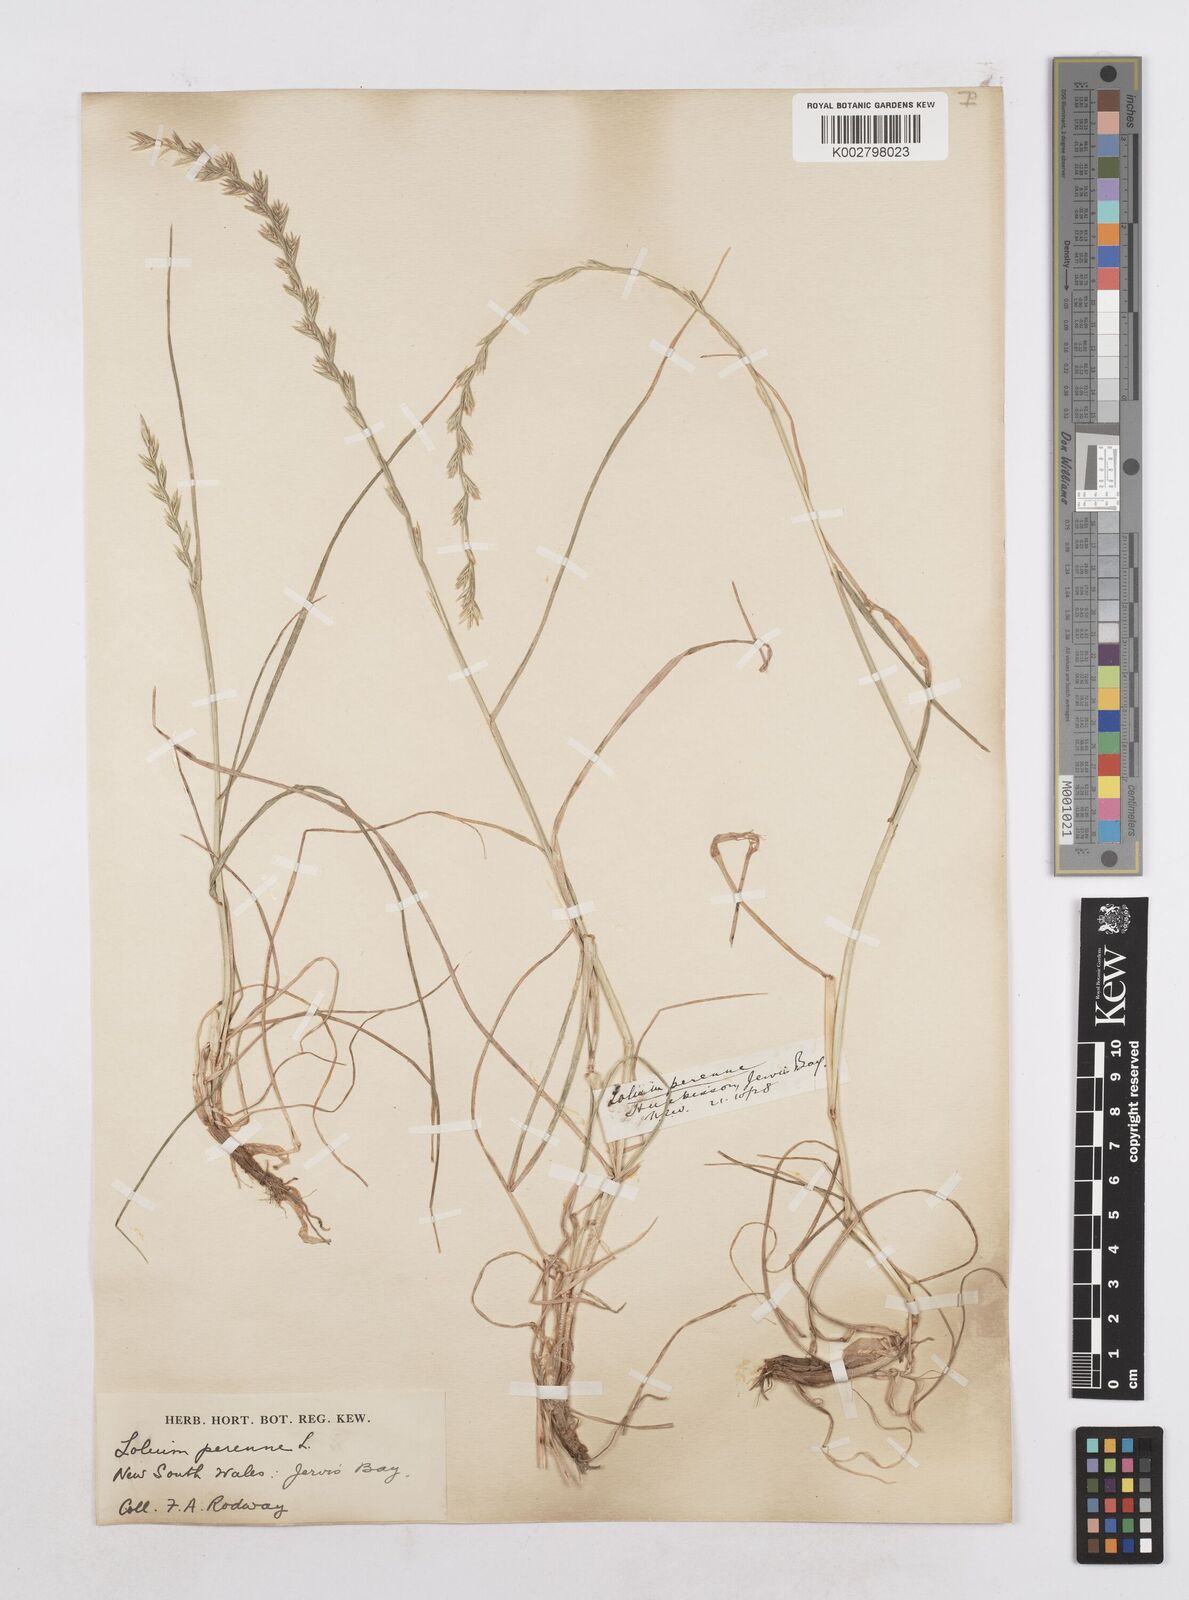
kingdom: Plantae
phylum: Tracheophyta
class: Liliopsida
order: Poales
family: Poaceae
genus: Lolium
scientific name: Lolium perenne
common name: Perennial ryegrass
